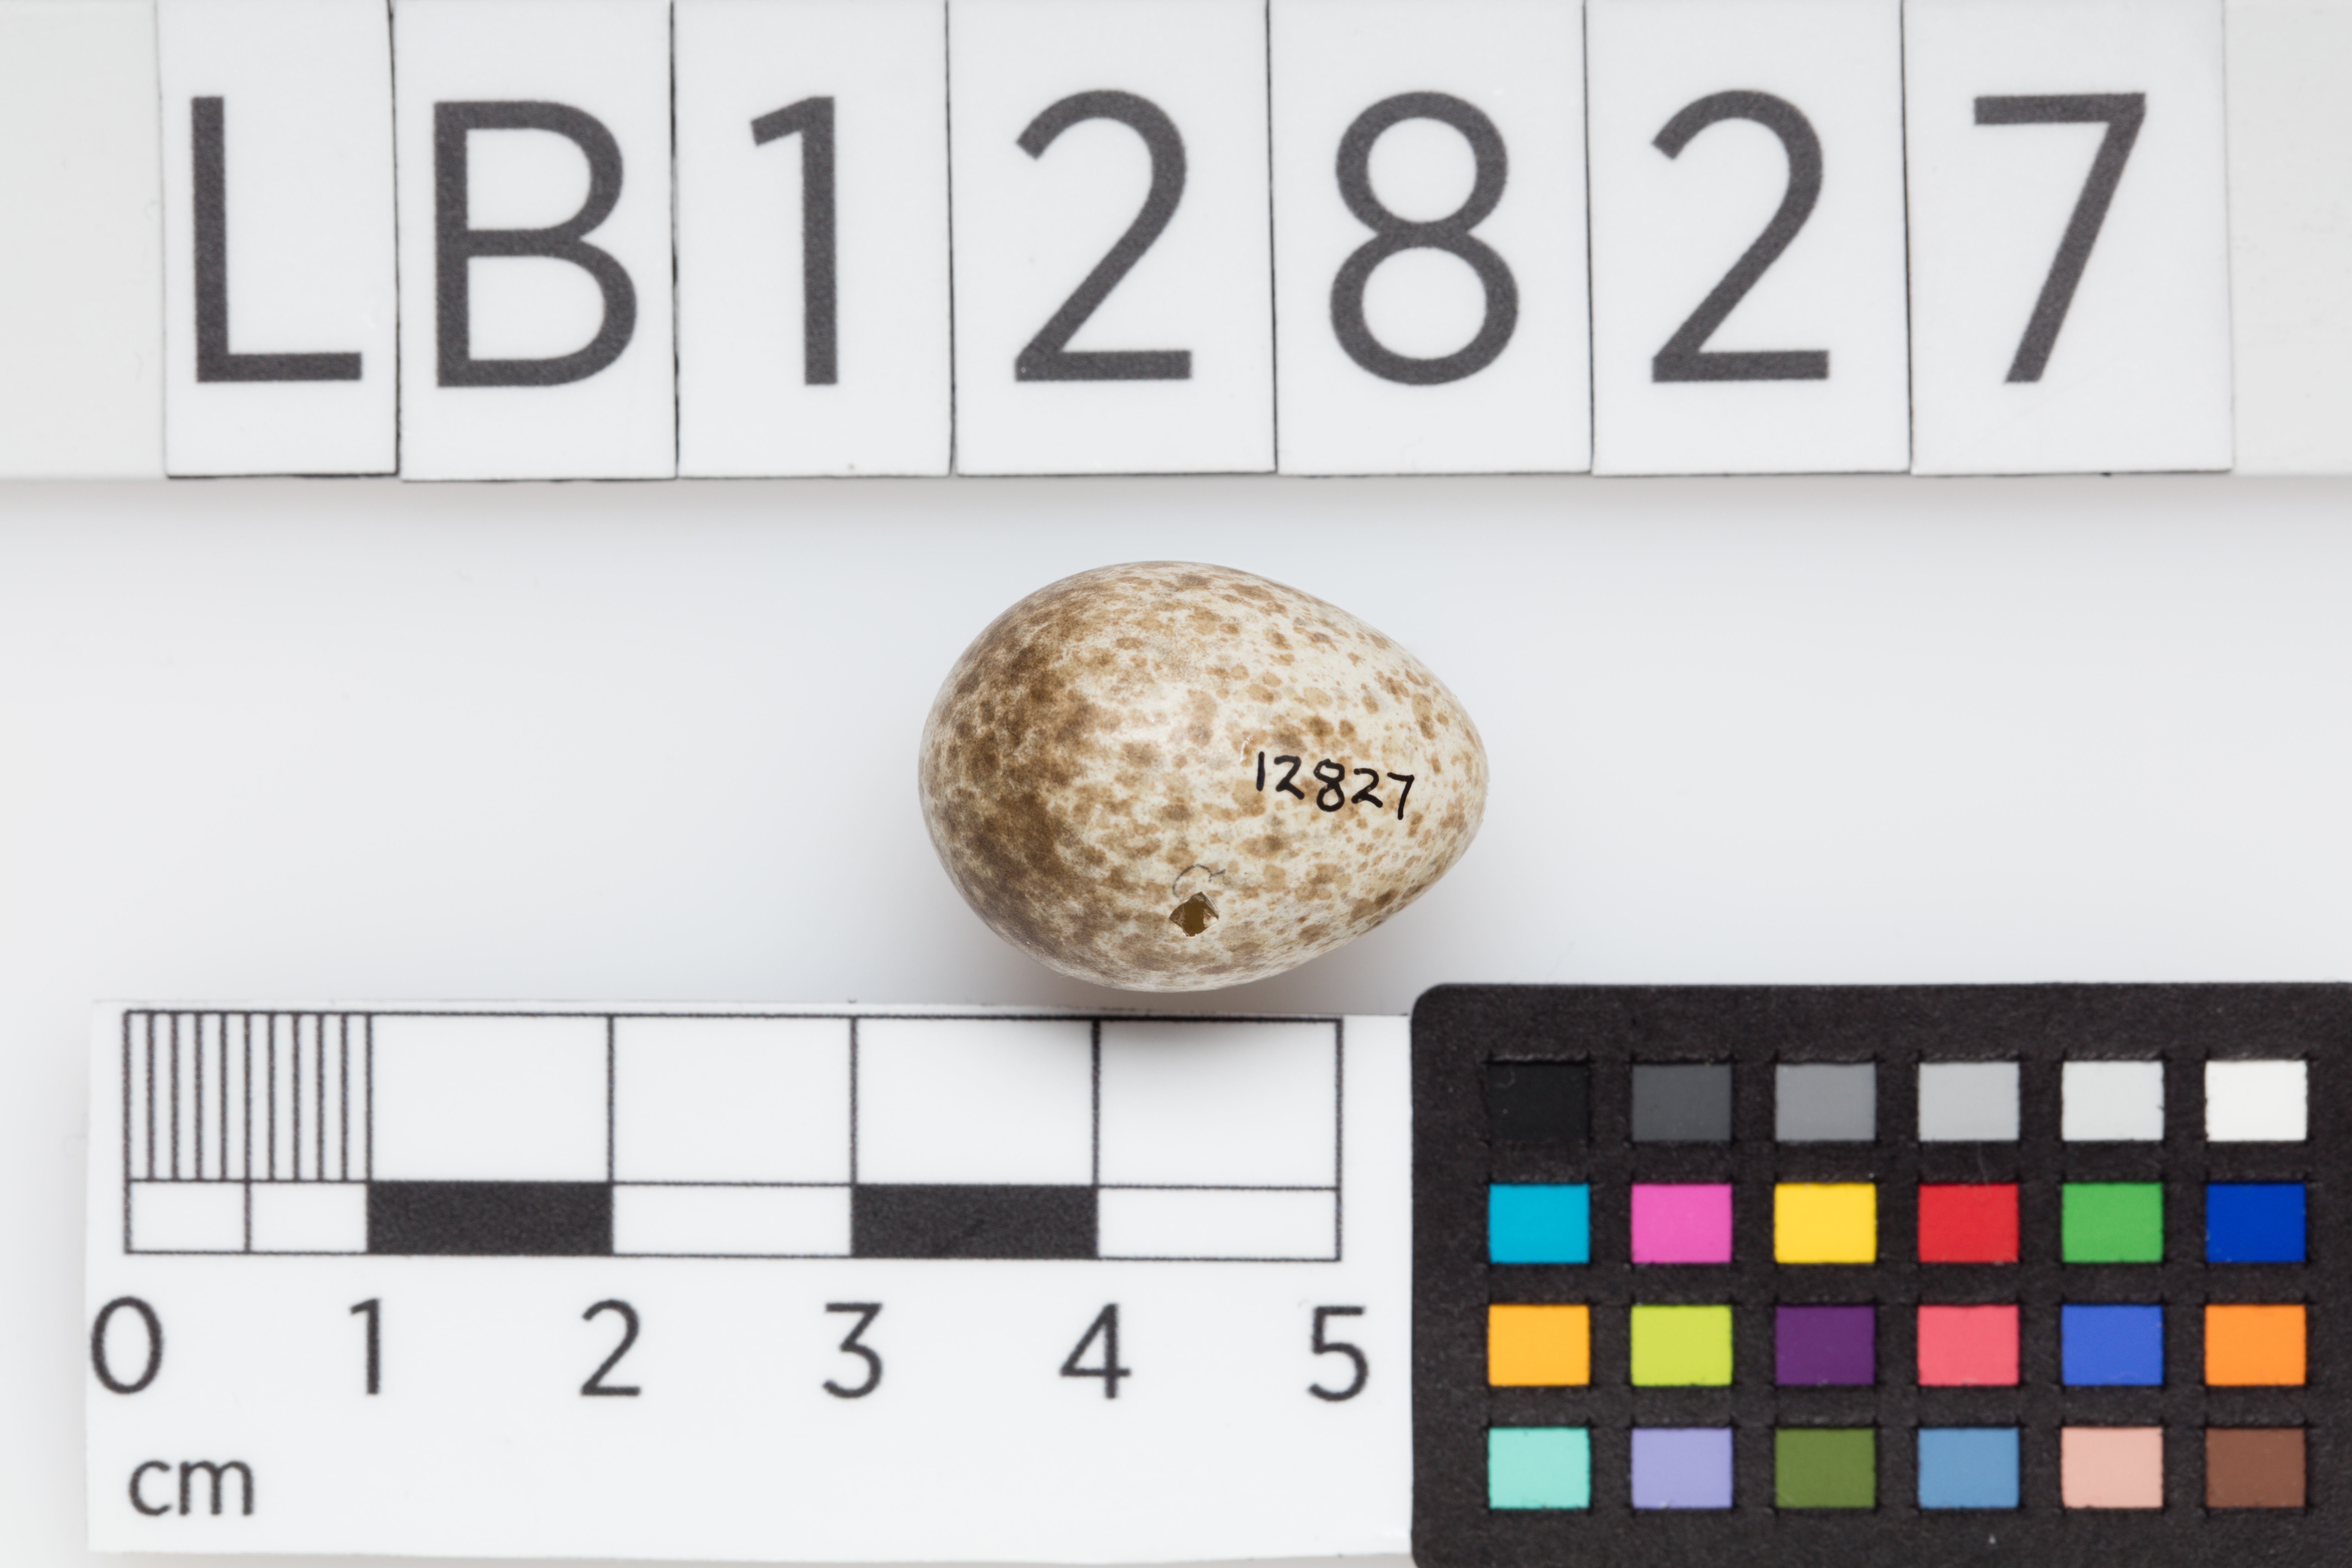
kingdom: Animalia
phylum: Chordata
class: Aves
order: Passeriformes
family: Alaudidae
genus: Alauda
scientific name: Alauda arvensis
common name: Eurasian skylark
